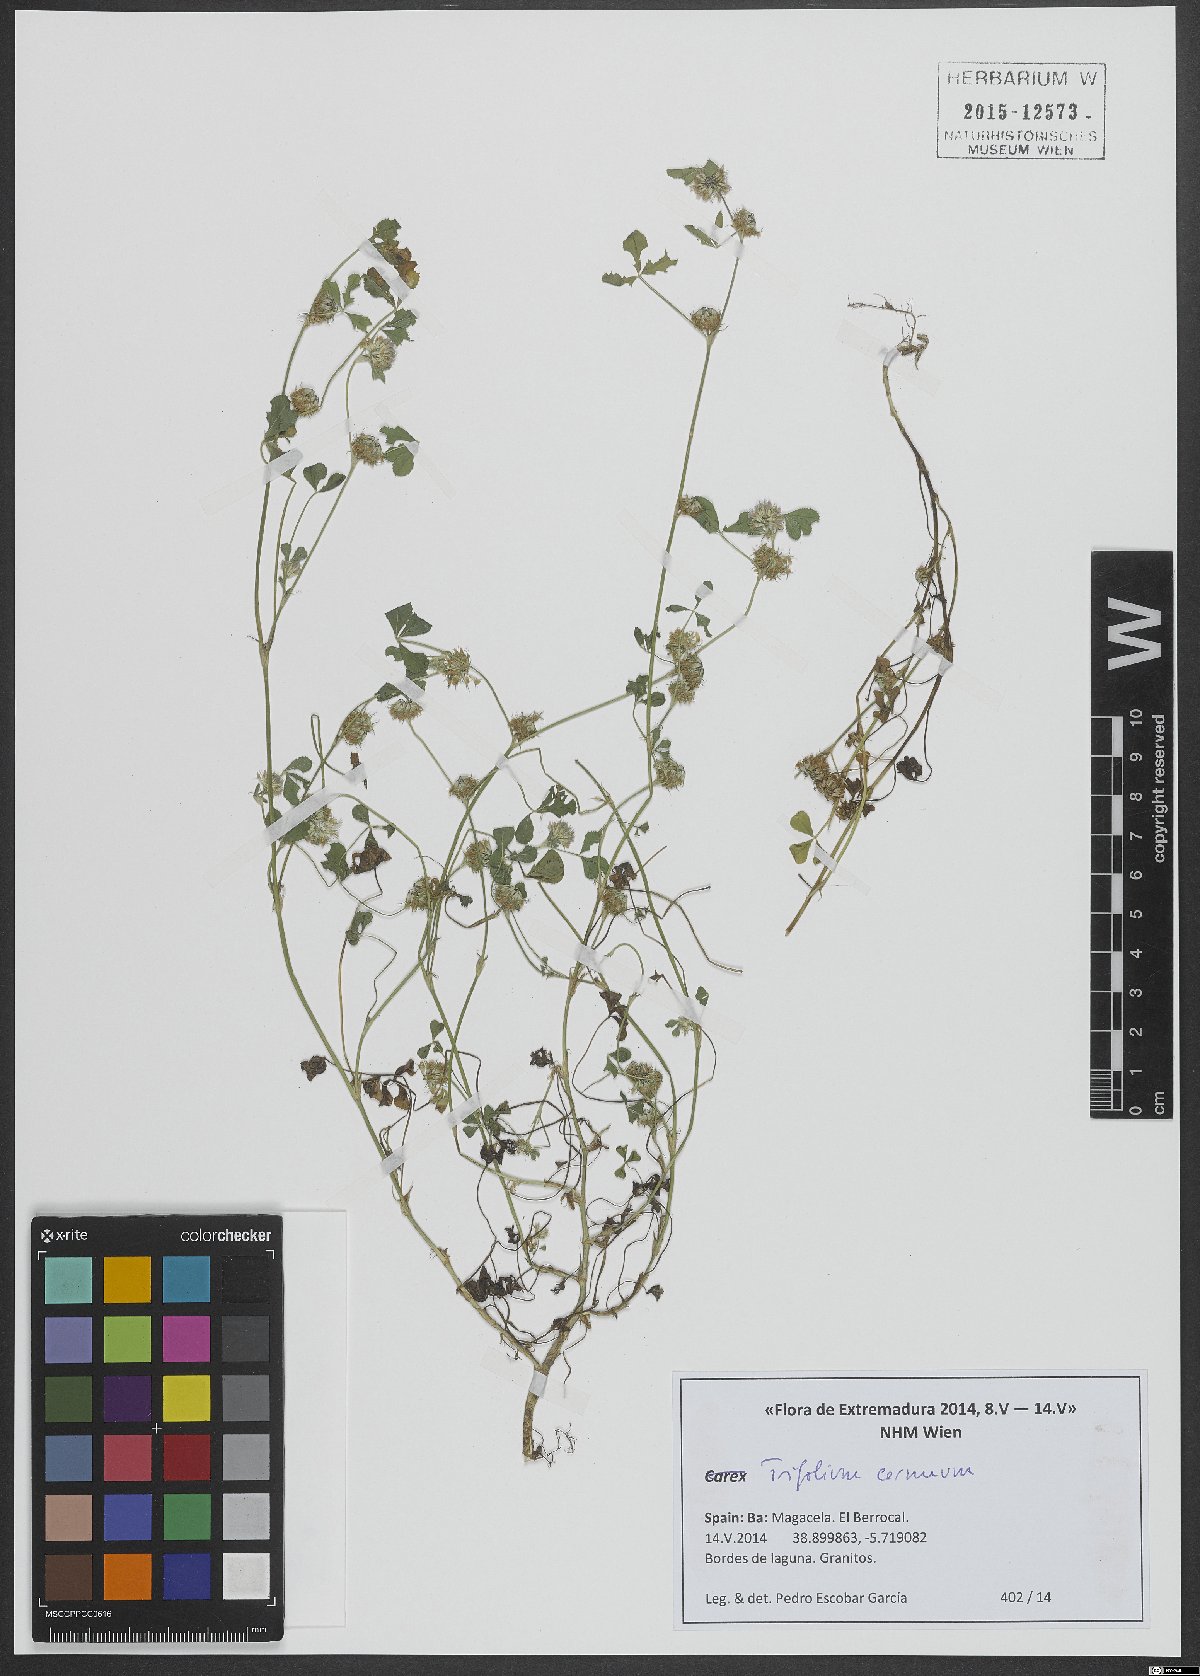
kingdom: Plantae
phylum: Tracheophyta
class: Magnoliopsida
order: Fabales
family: Fabaceae
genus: Trifolium
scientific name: Trifolium cernuum
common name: Nodding clover
